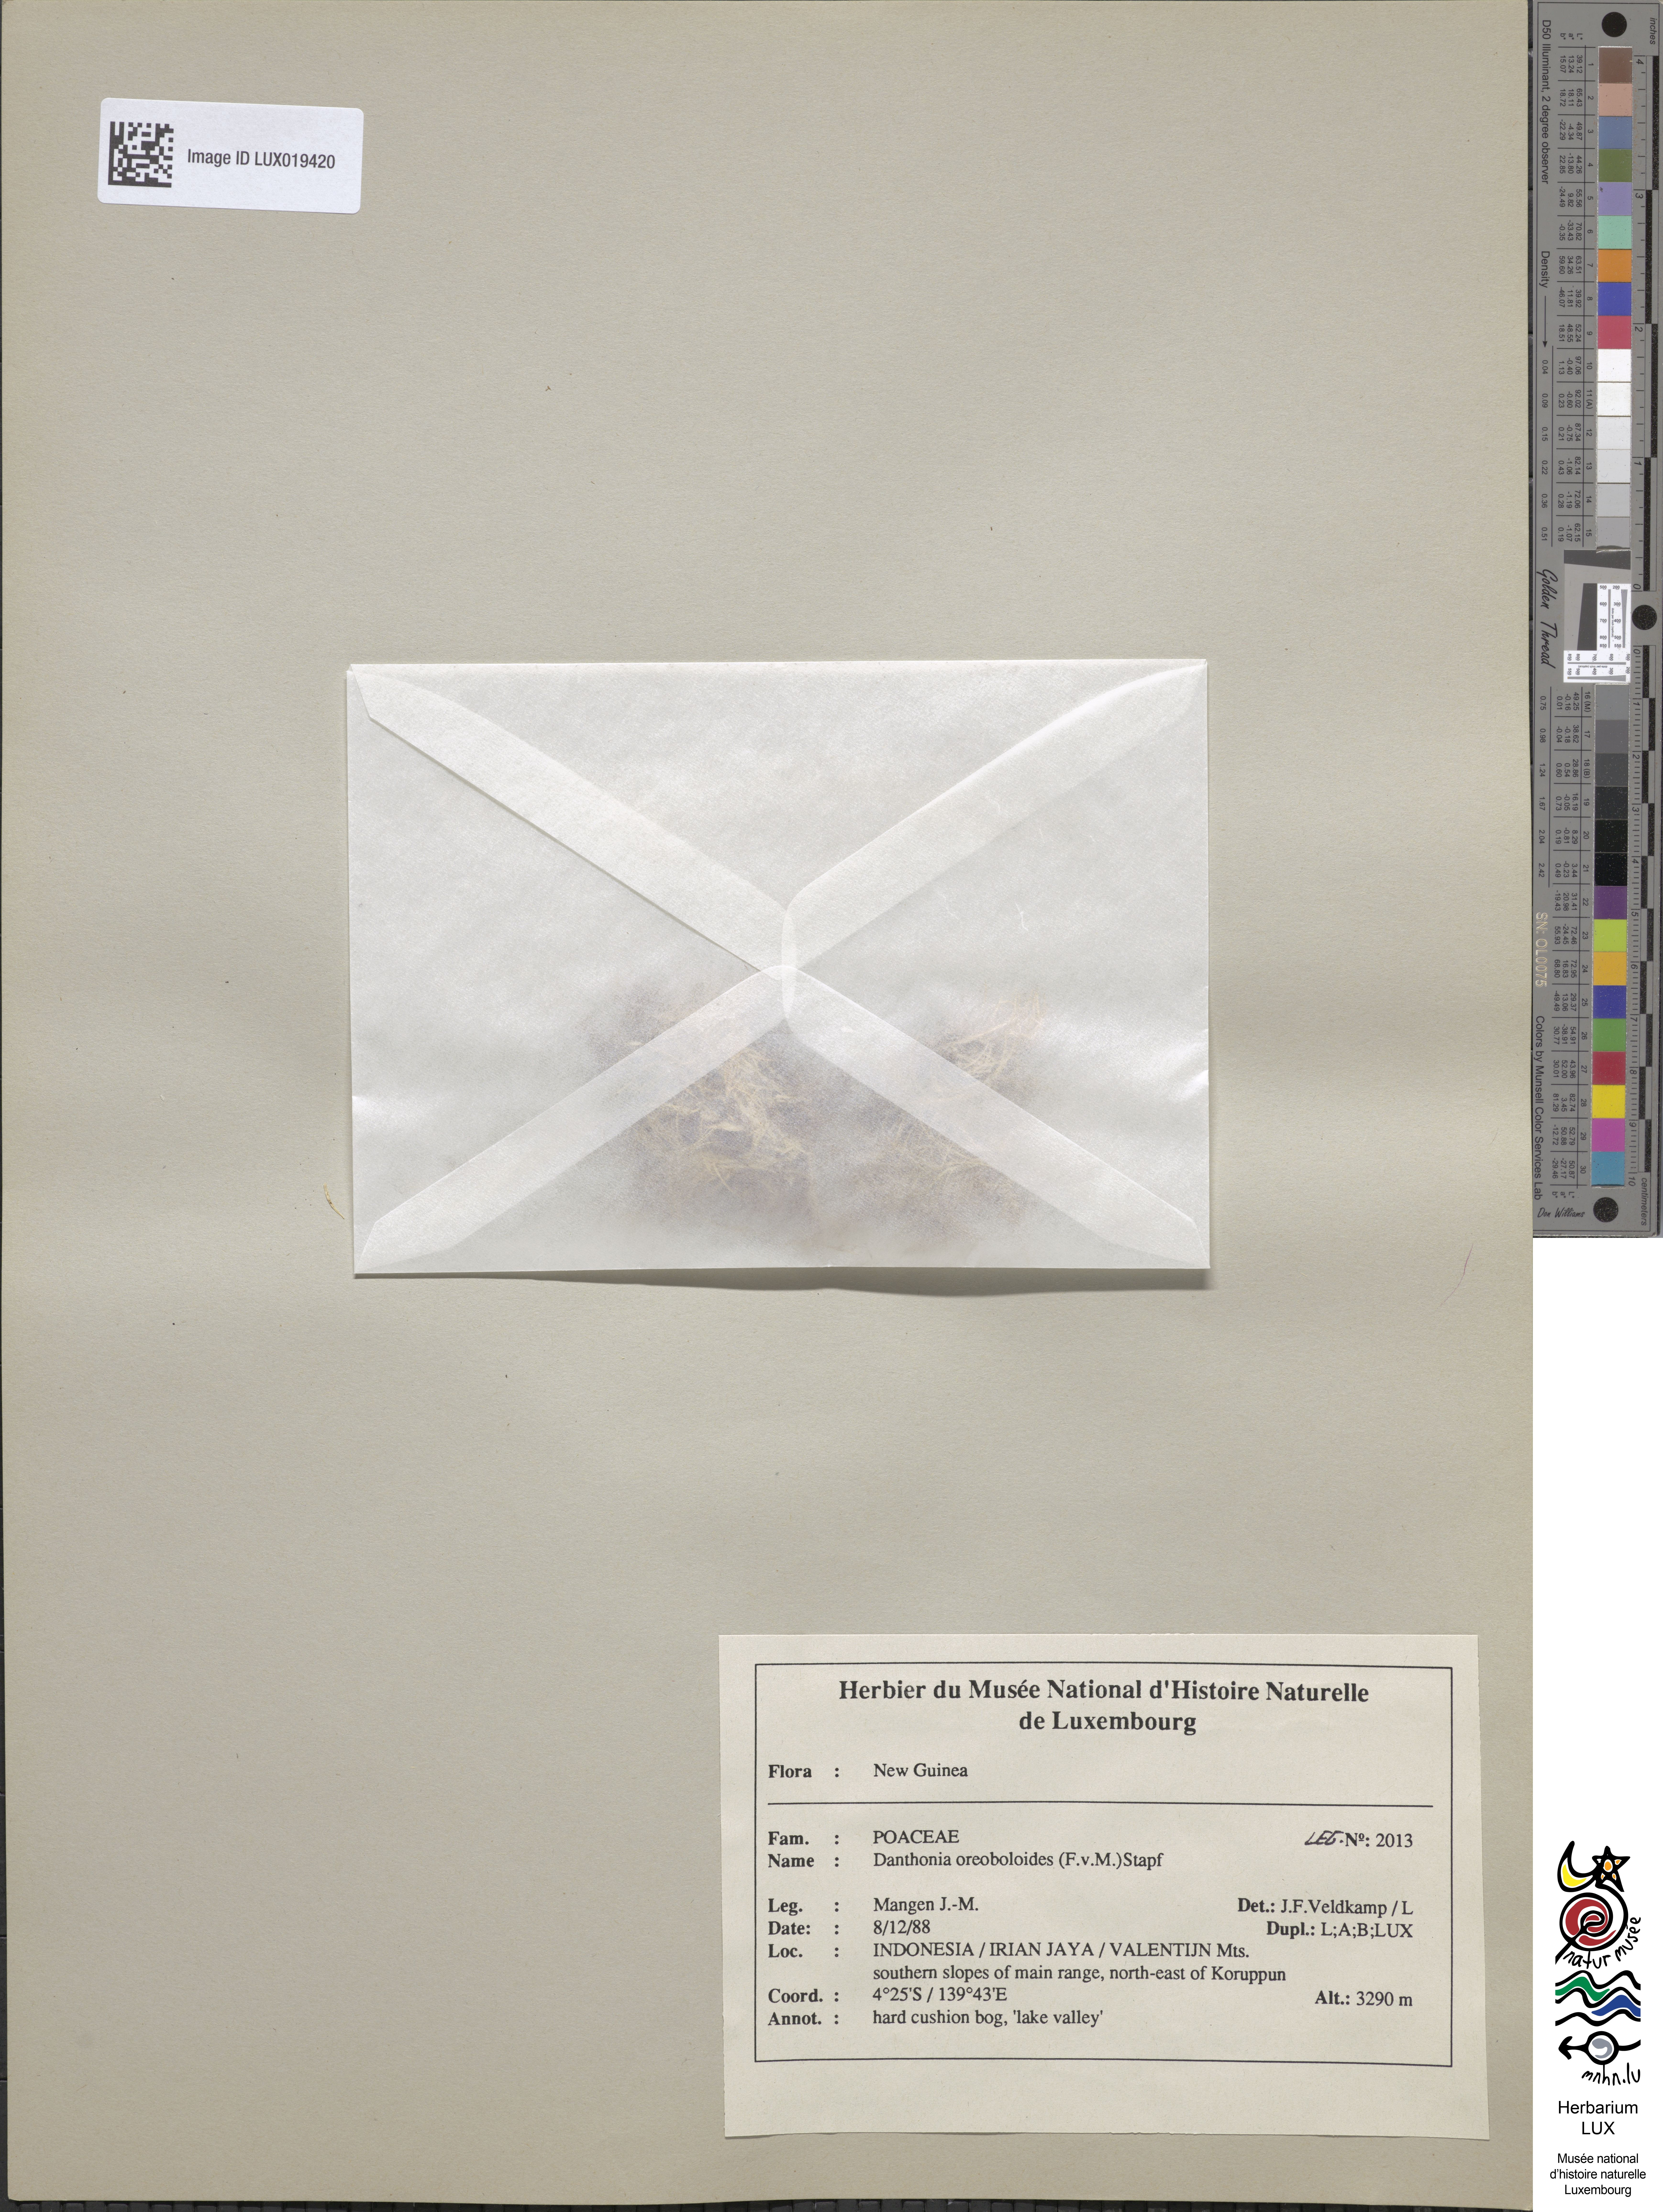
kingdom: Plantae
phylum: Tracheophyta
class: Liliopsida
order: Poales
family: Poaceae
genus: Rytidosperma
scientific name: Rytidosperma oreoboloides
